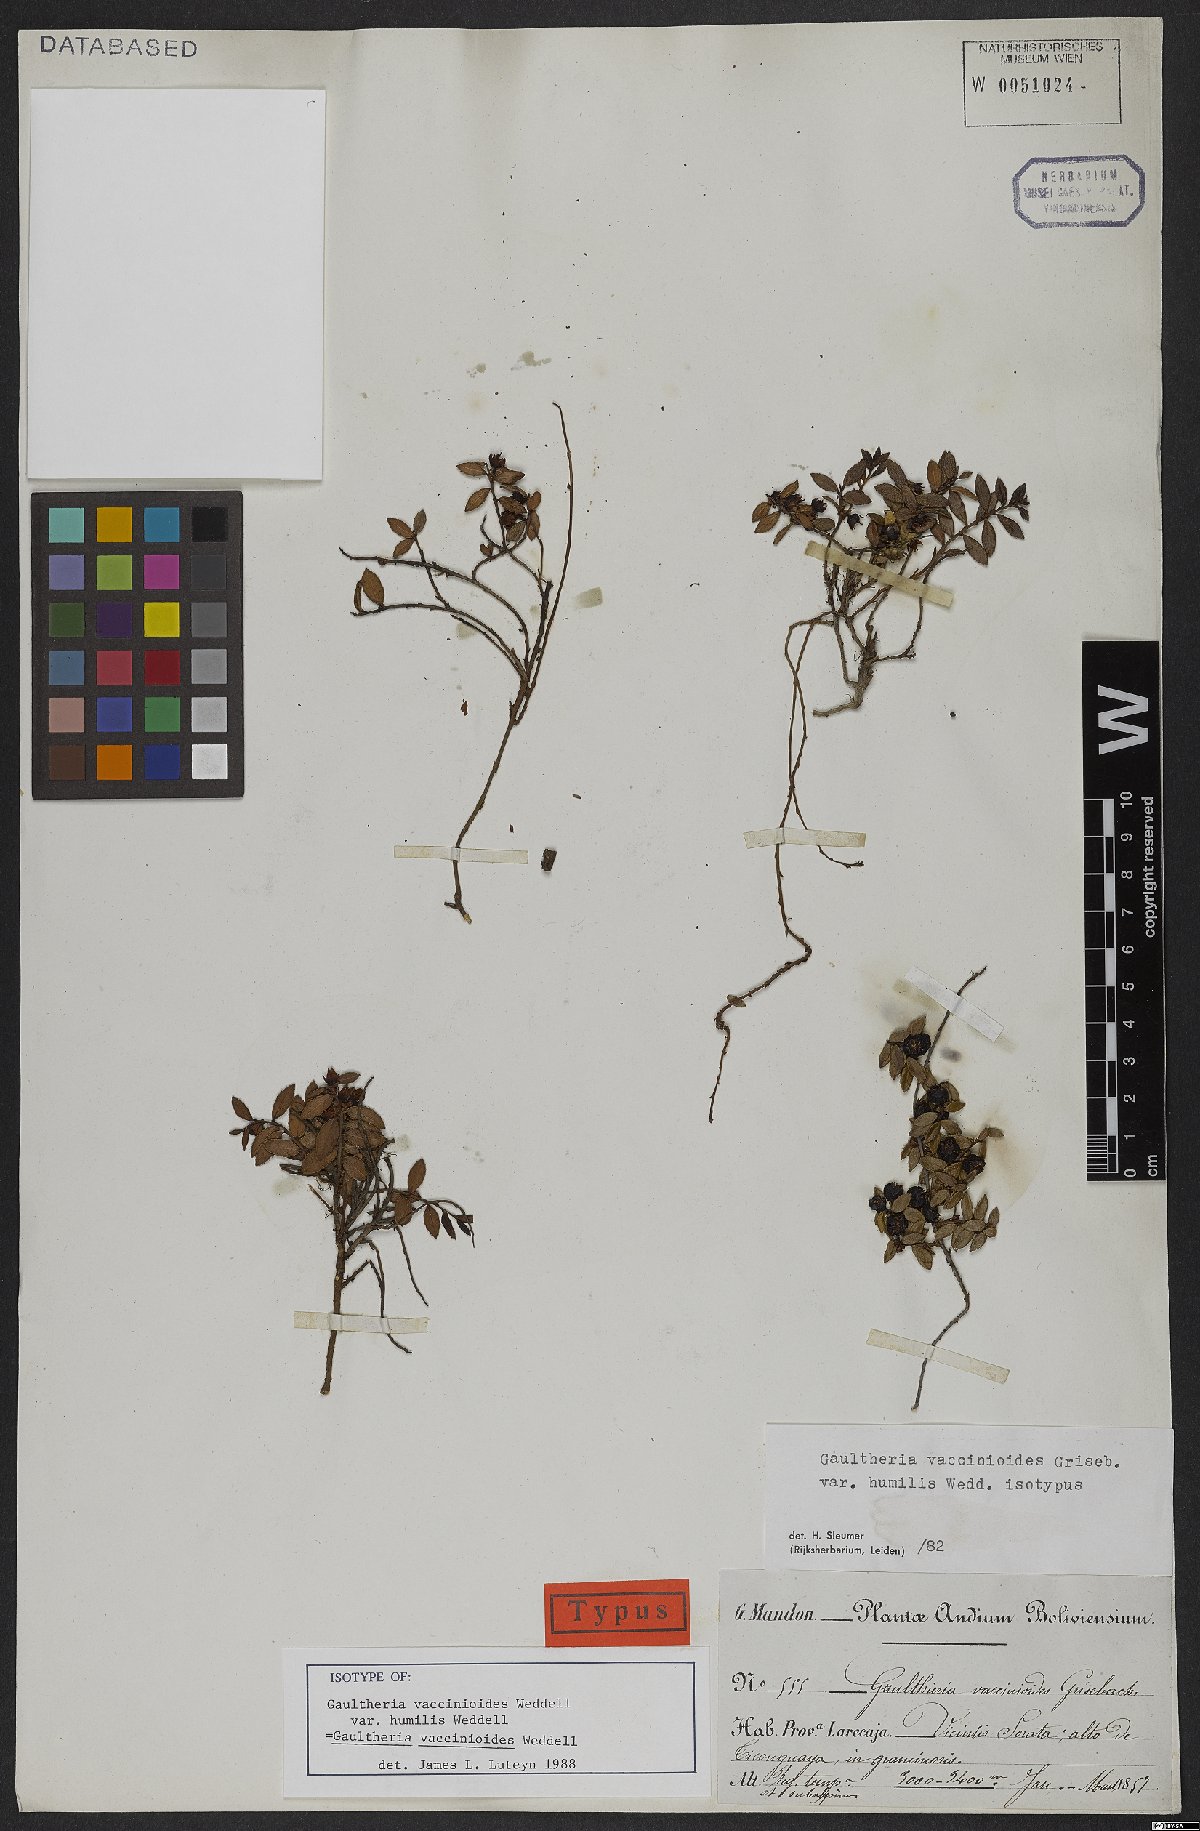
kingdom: Plantae
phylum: Tracheophyta
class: Magnoliopsida
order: Ericales
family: Ericaceae
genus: Gaultheria
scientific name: Gaultheria vaccinioides
